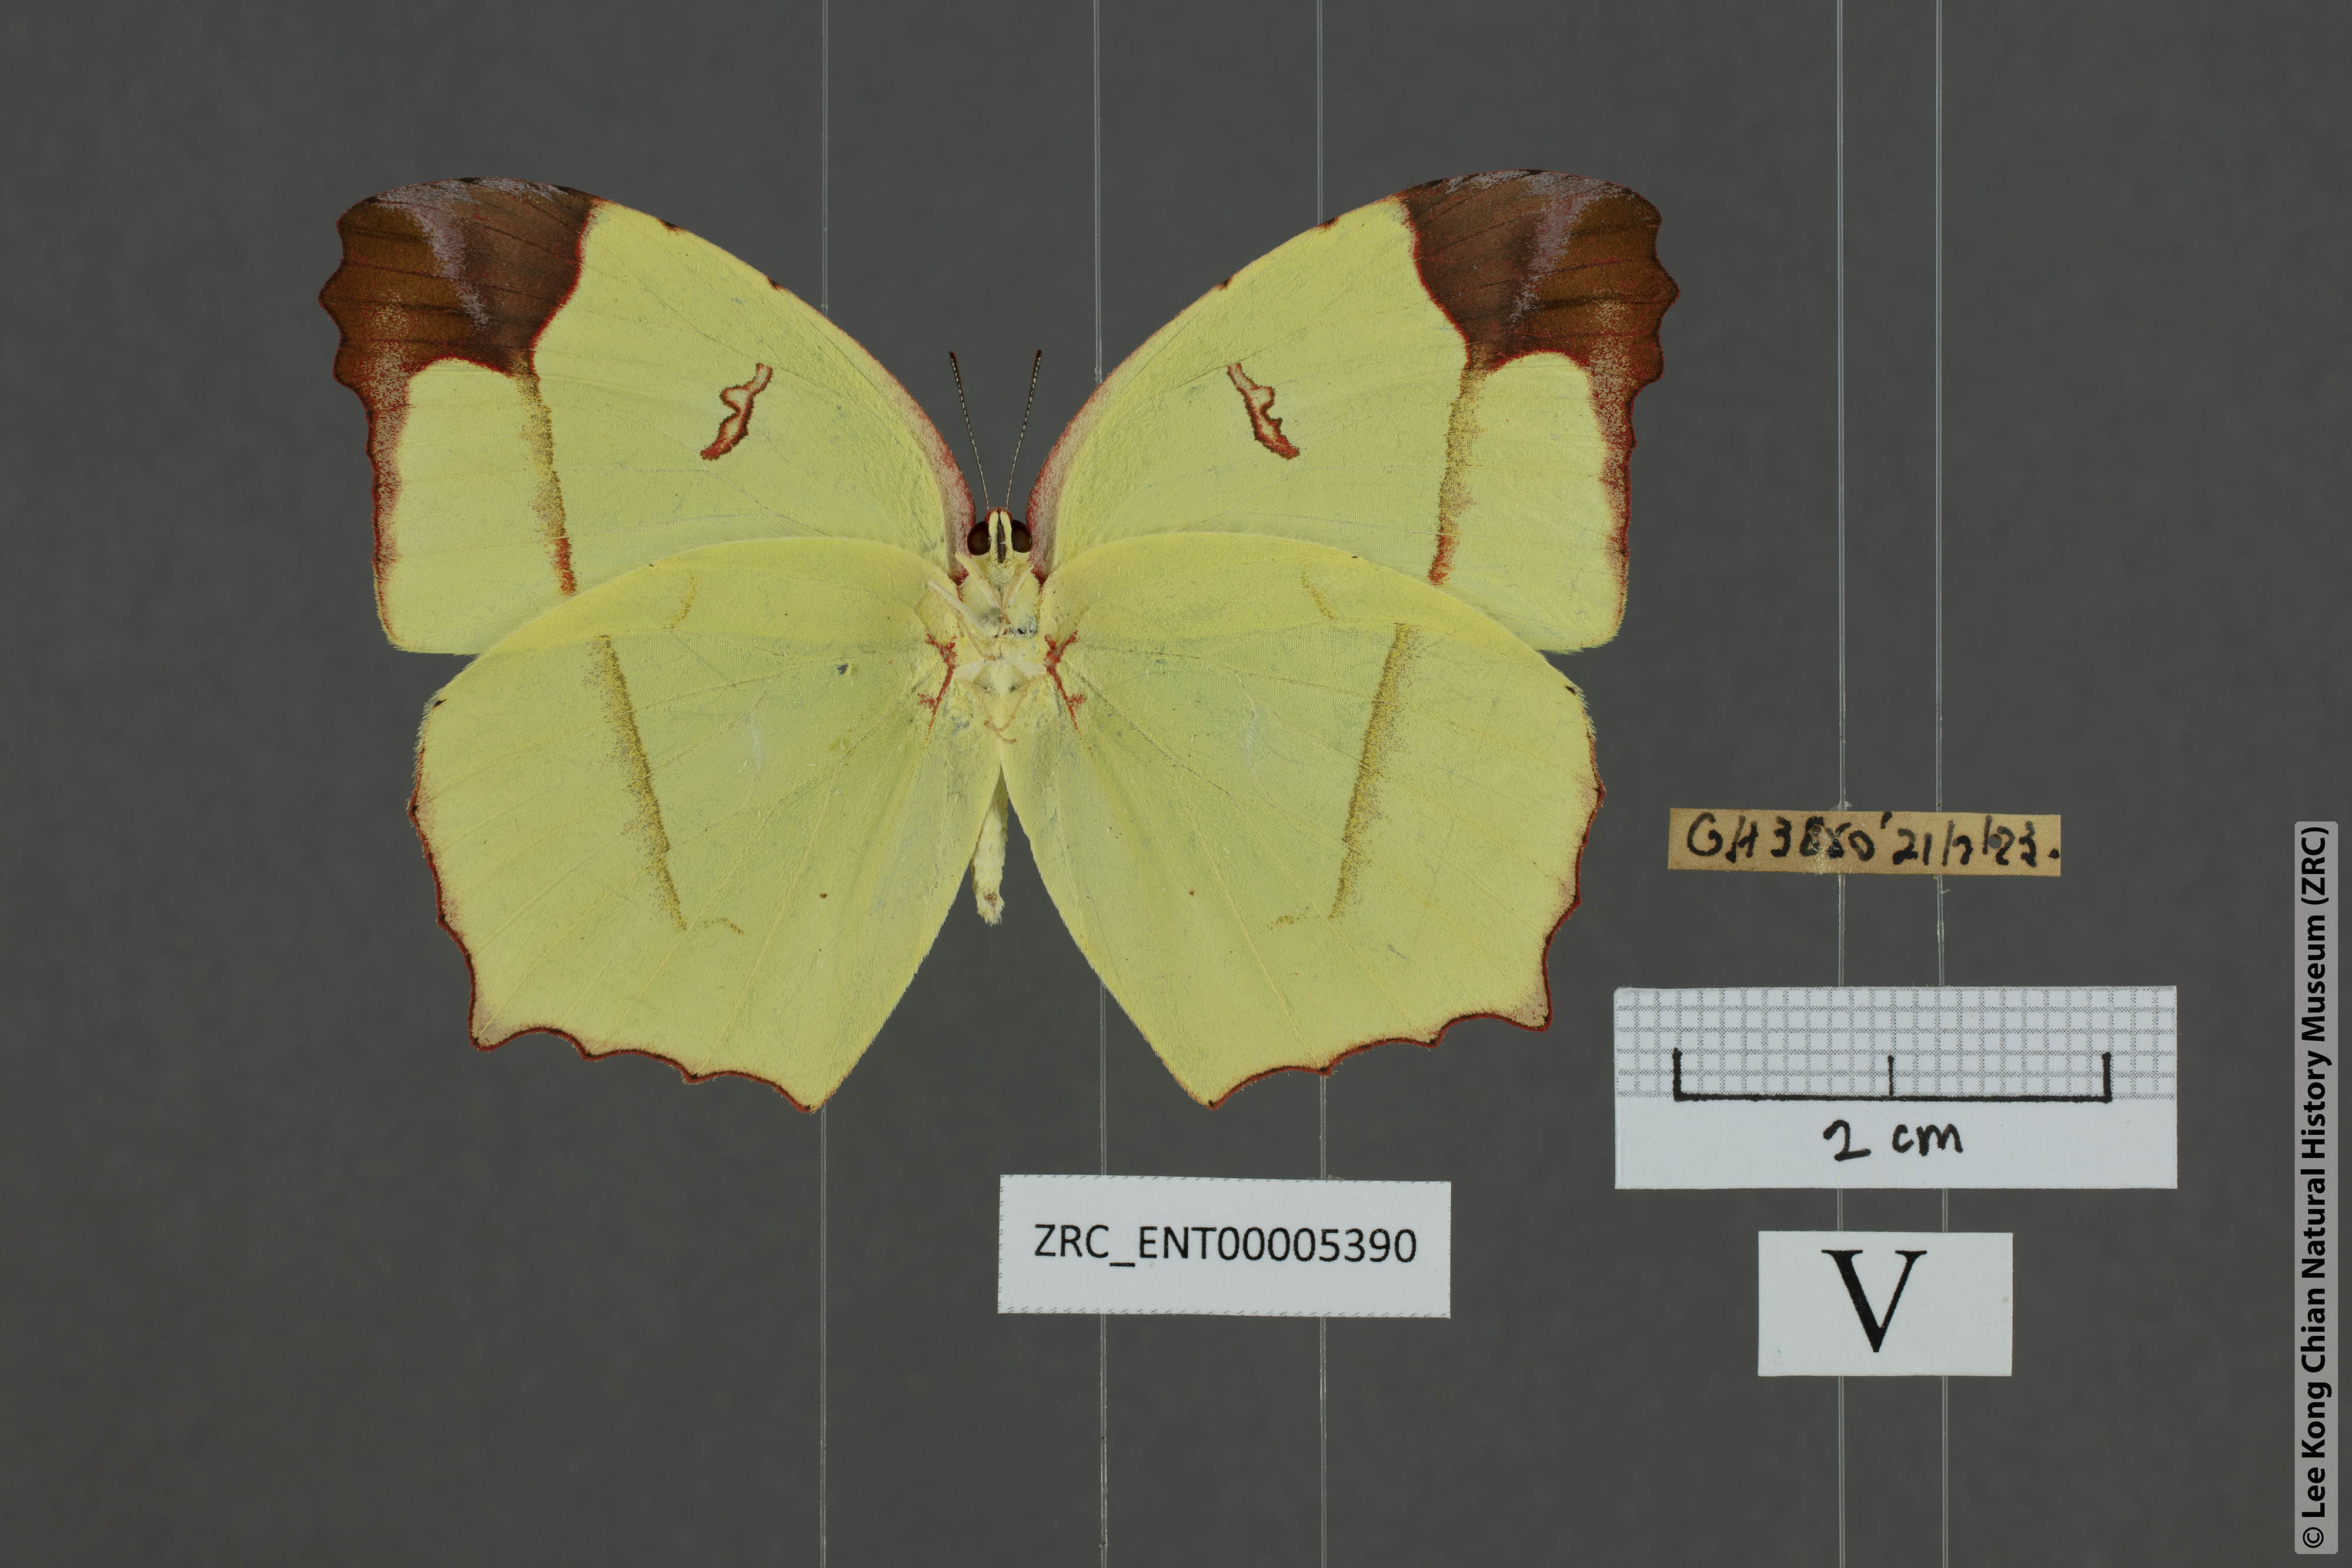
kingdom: Animalia
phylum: Arthropoda
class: Insecta
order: Lepidoptera
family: Pieridae
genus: Dercas
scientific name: Dercas verhuelli
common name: Tailed sulphur
